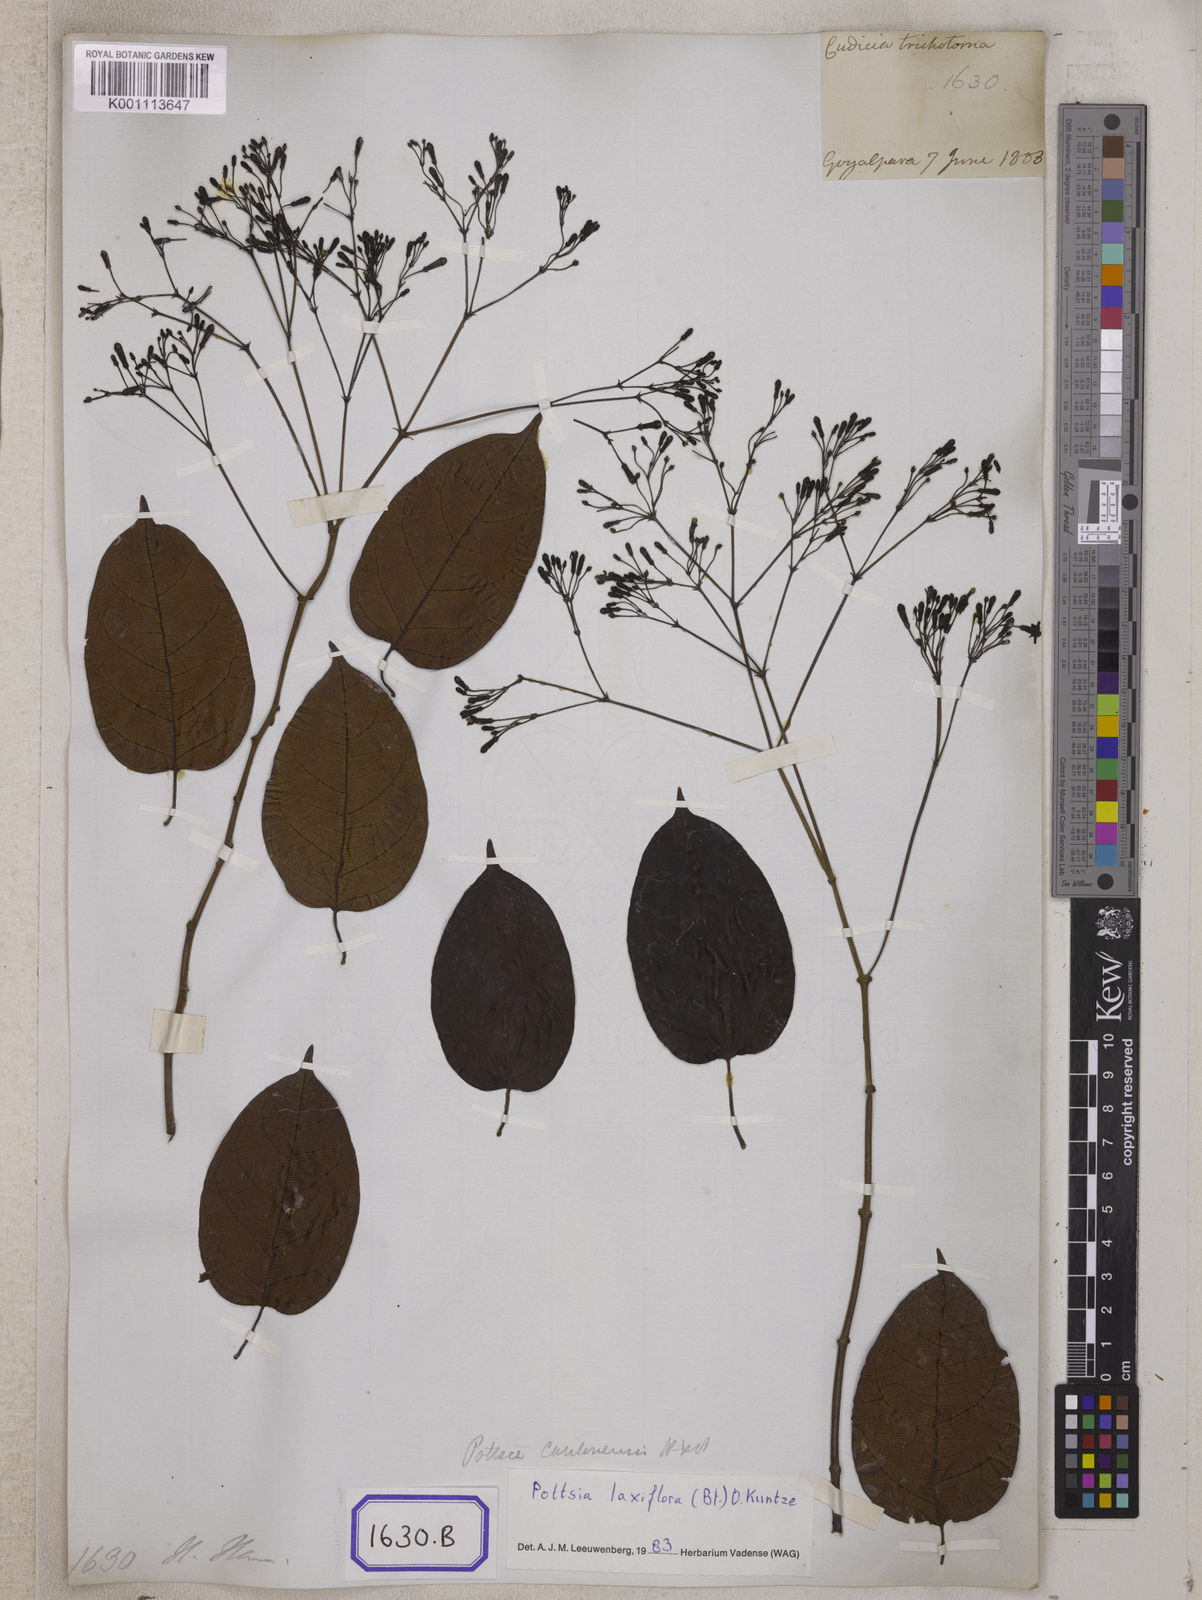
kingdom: Plantae
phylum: Tracheophyta
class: Magnoliopsida
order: Gentianales
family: Apocynaceae
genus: Parsonsia
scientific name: Parsonsia
